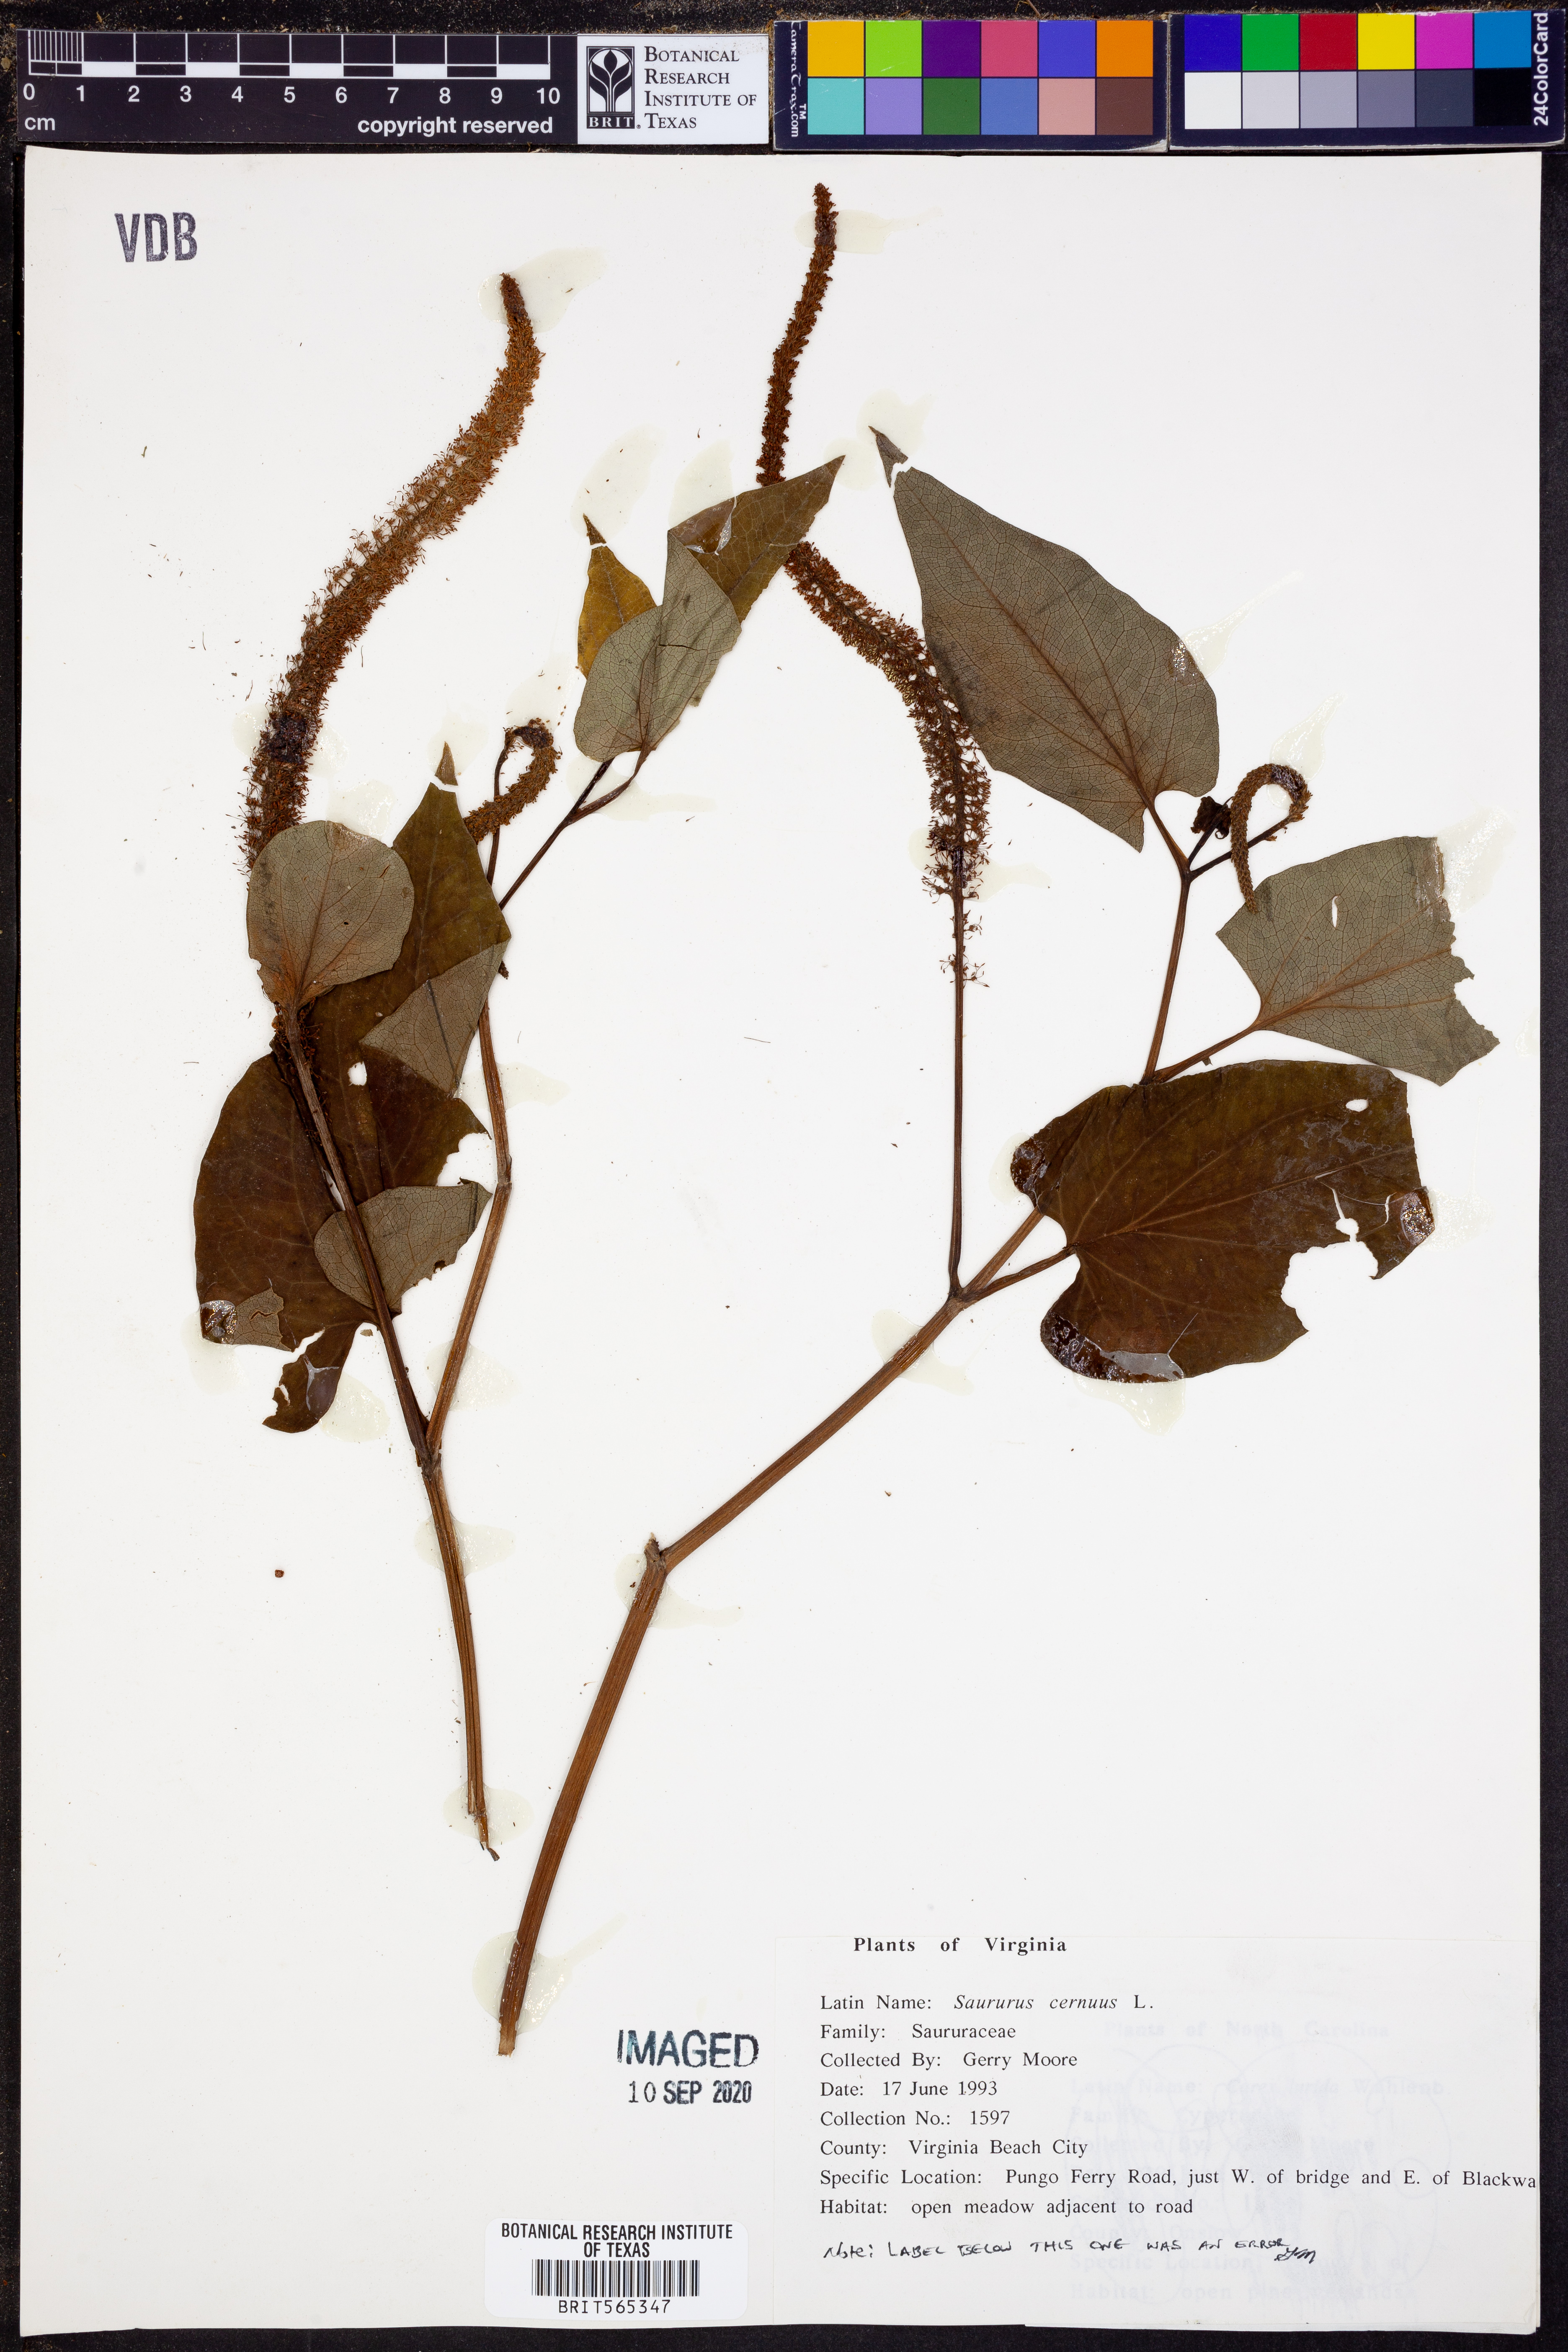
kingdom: Plantae
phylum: Tracheophyta
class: Magnoliopsida
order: Piperales
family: Saururaceae
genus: Saururus
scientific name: Saururus cernuus
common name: Lizard's-tail
